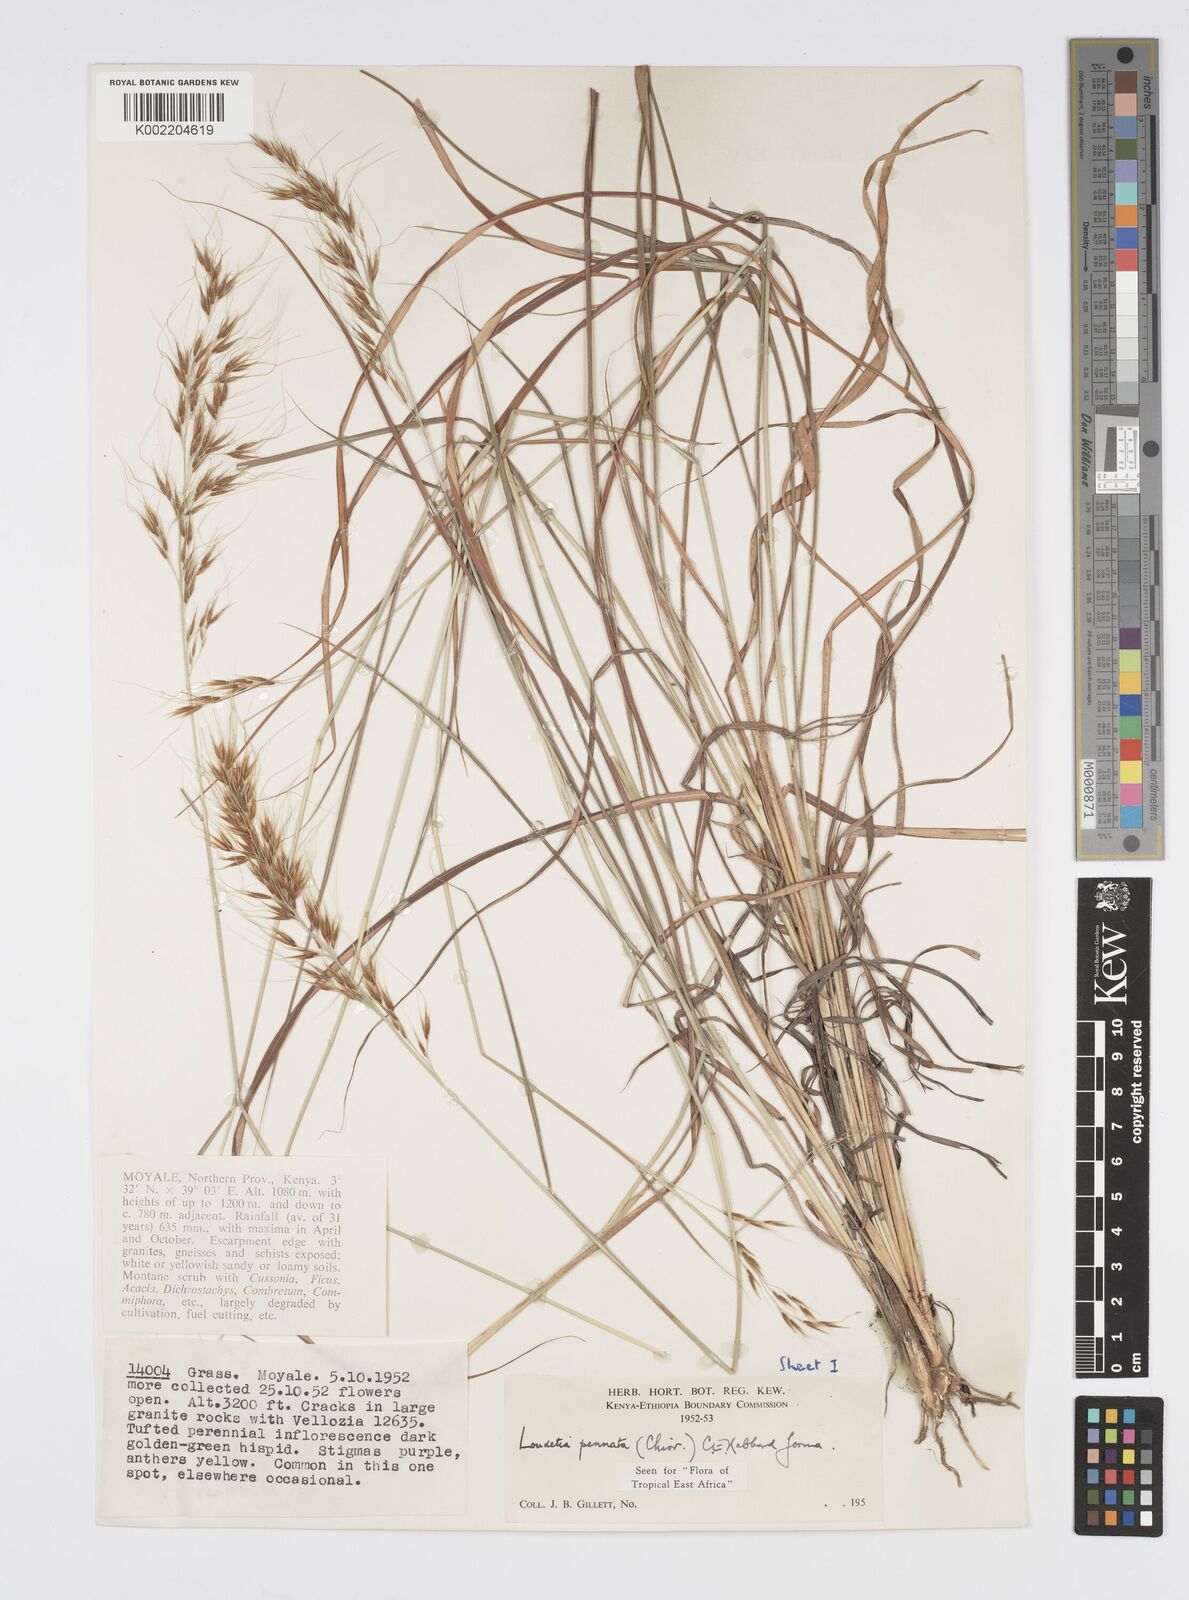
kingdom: Plantae
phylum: Tracheophyta
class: Liliopsida
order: Poales
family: Poaceae
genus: Loudetia
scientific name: Loudetia flavida
